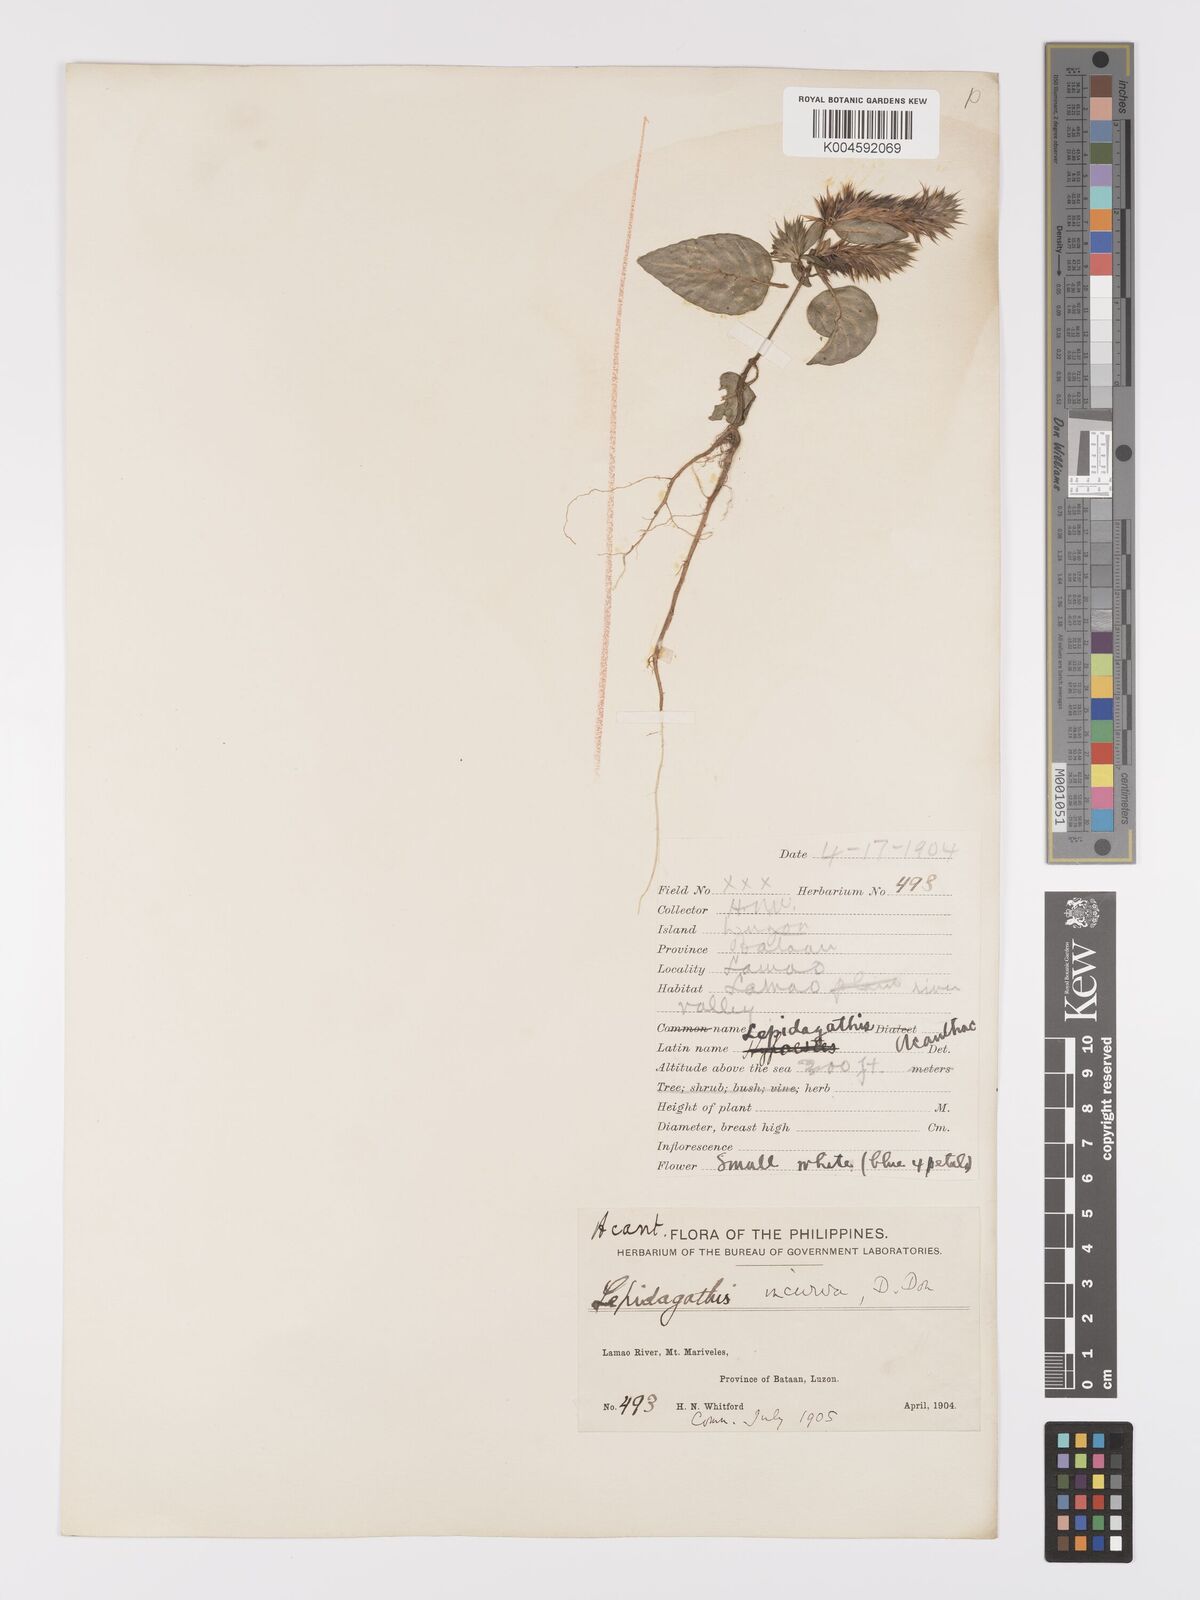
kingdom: Plantae
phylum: Tracheophyta
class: Magnoliopsida
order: Lamiales
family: Acanthaceae
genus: Lepidagathis
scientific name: Lepidagathis incurva
